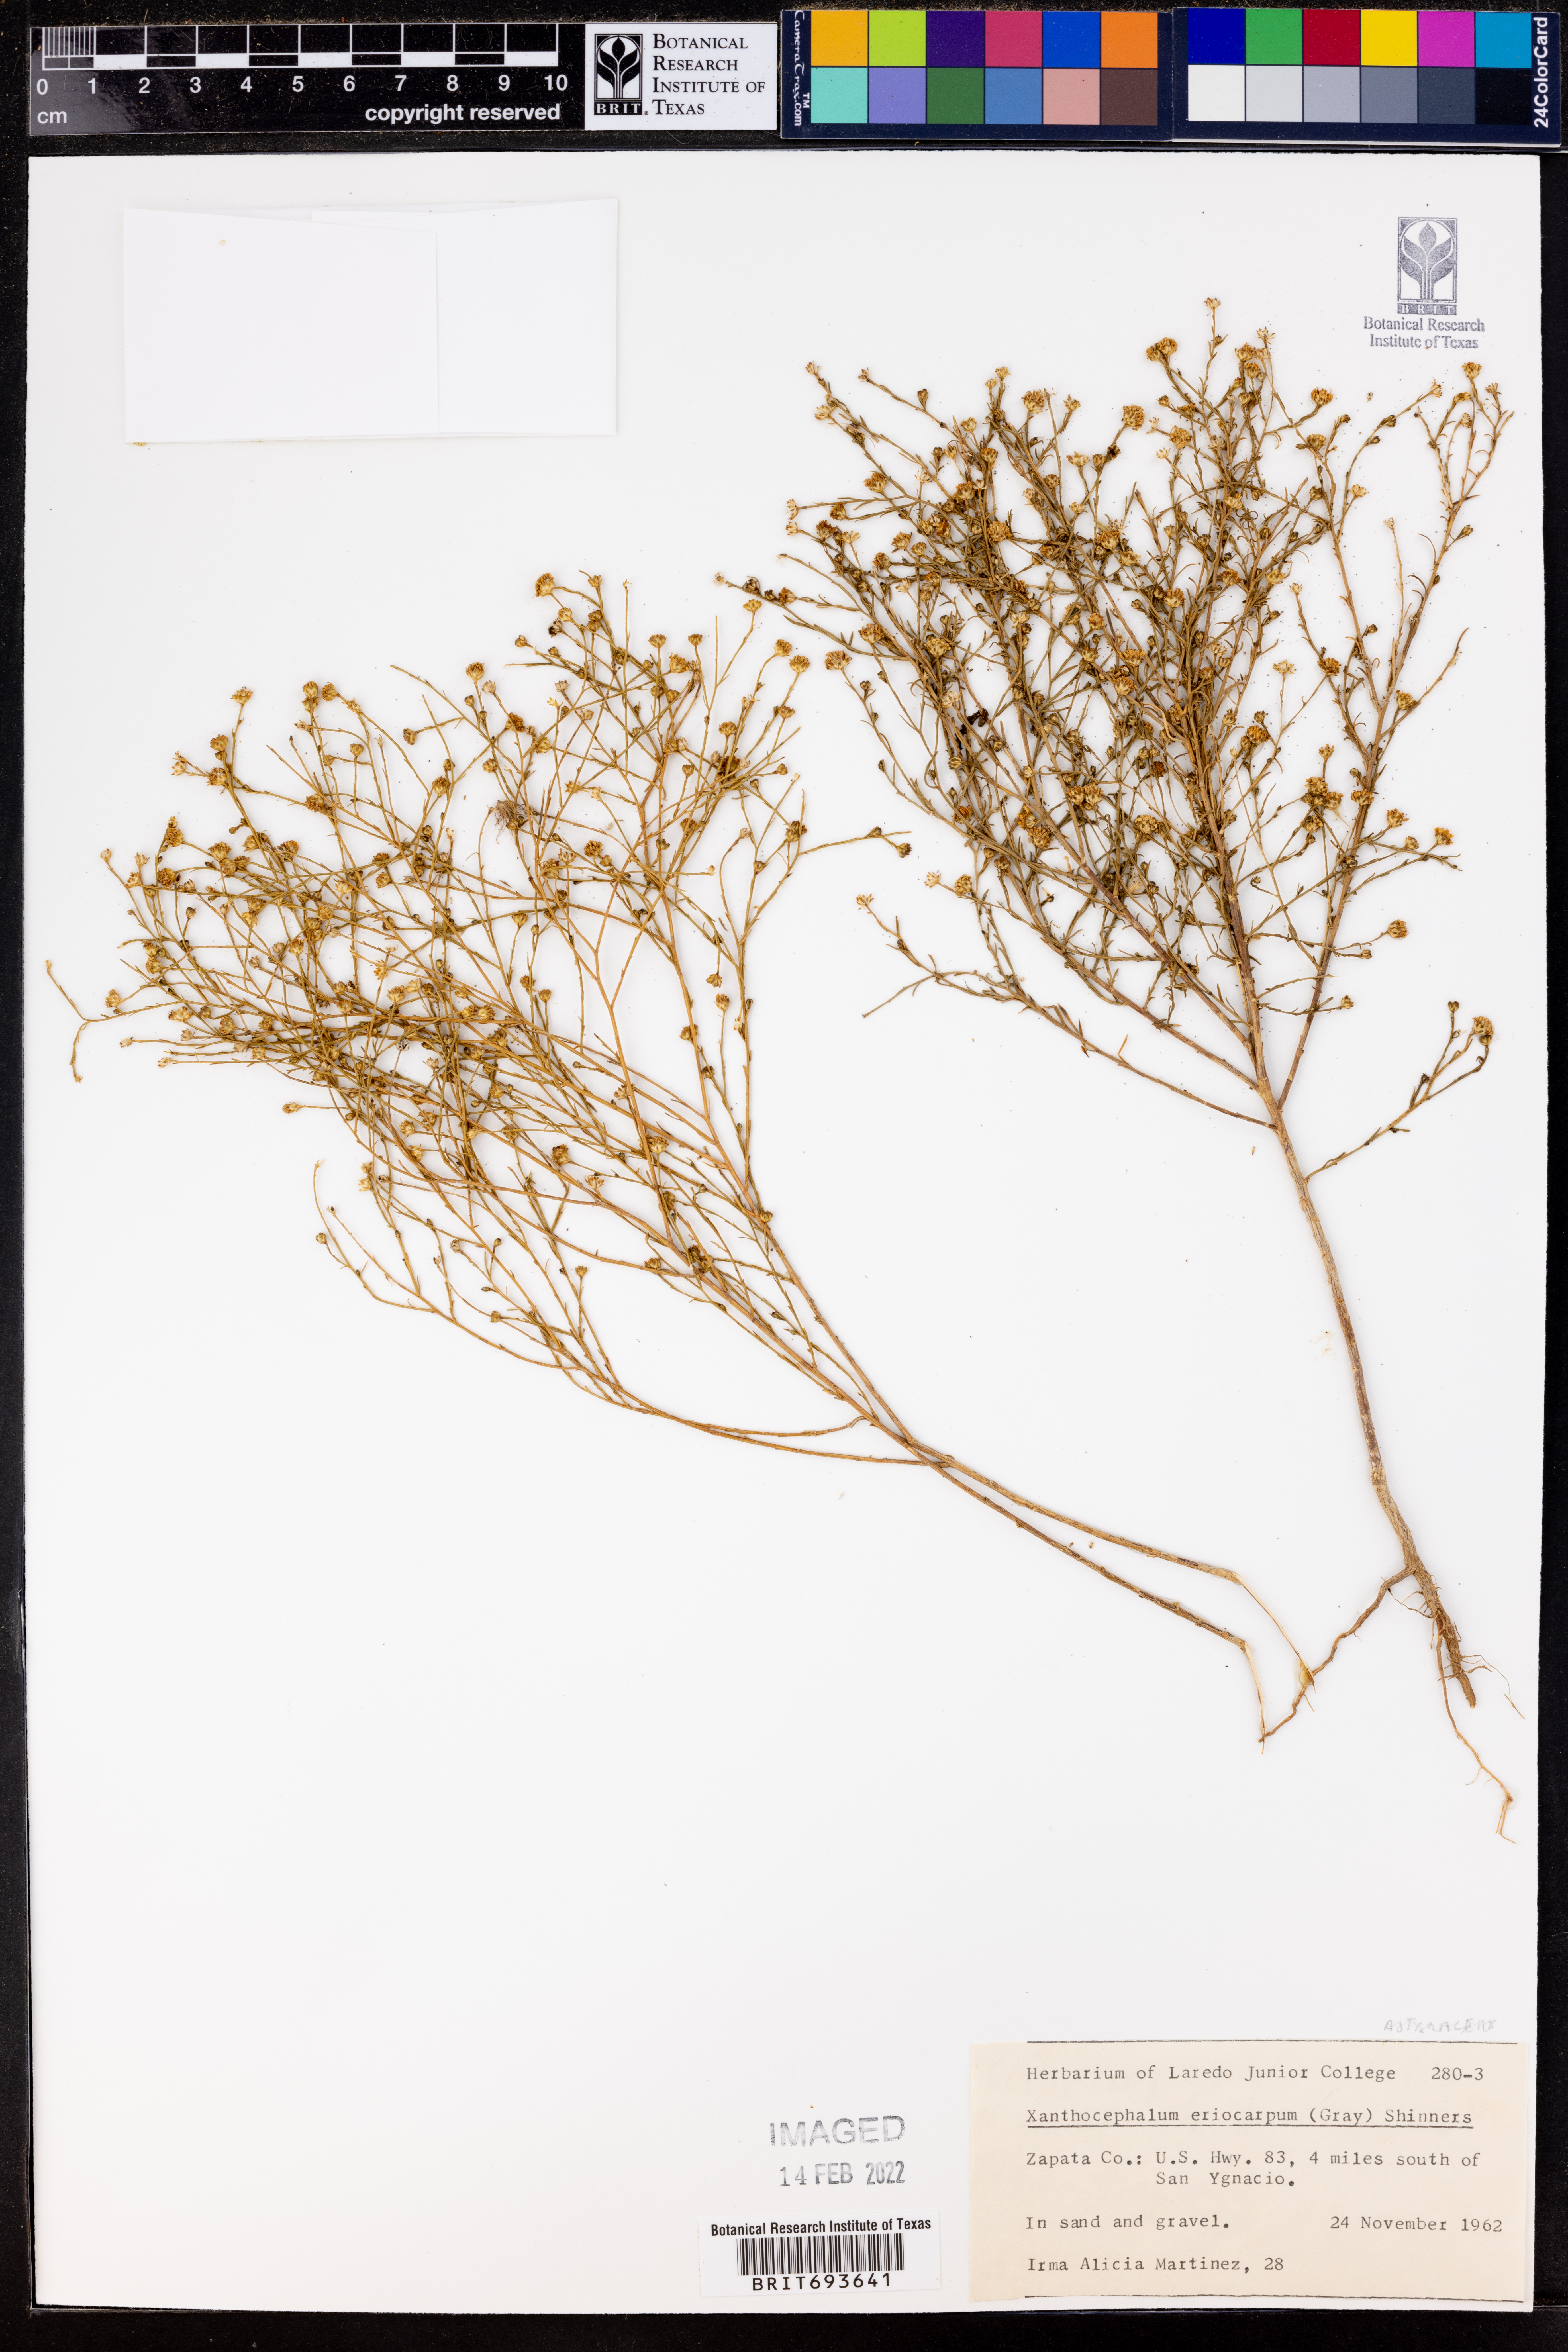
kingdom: Plantae
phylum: Tracheophyta
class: Magnoliopsida
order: Asterales
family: Asteraceae
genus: Xanthocephalum
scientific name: Xanthocephalum
